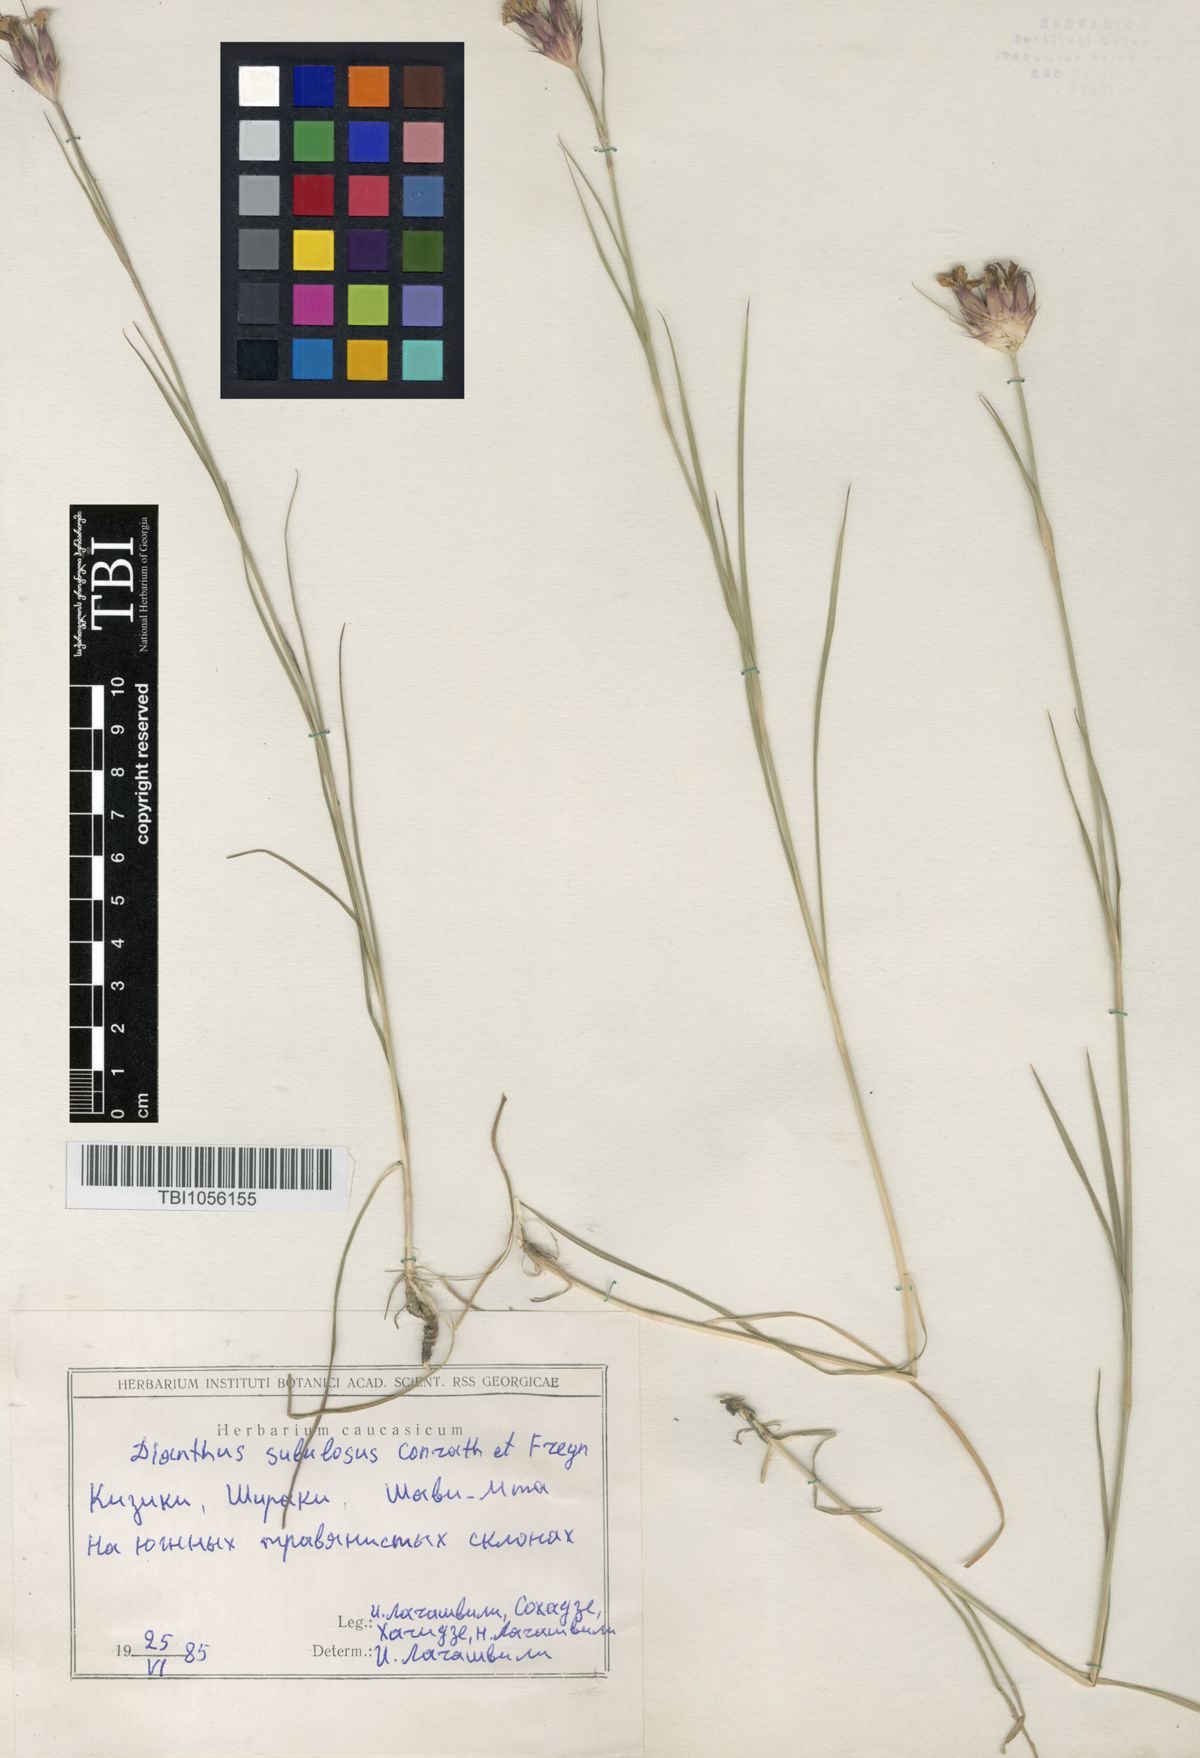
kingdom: Plantae
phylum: Tracheophyta
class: Magnoliopsida
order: Caryophyllales
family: Caryophyllaceae
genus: Dianthus
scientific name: Dianthus subulosus
